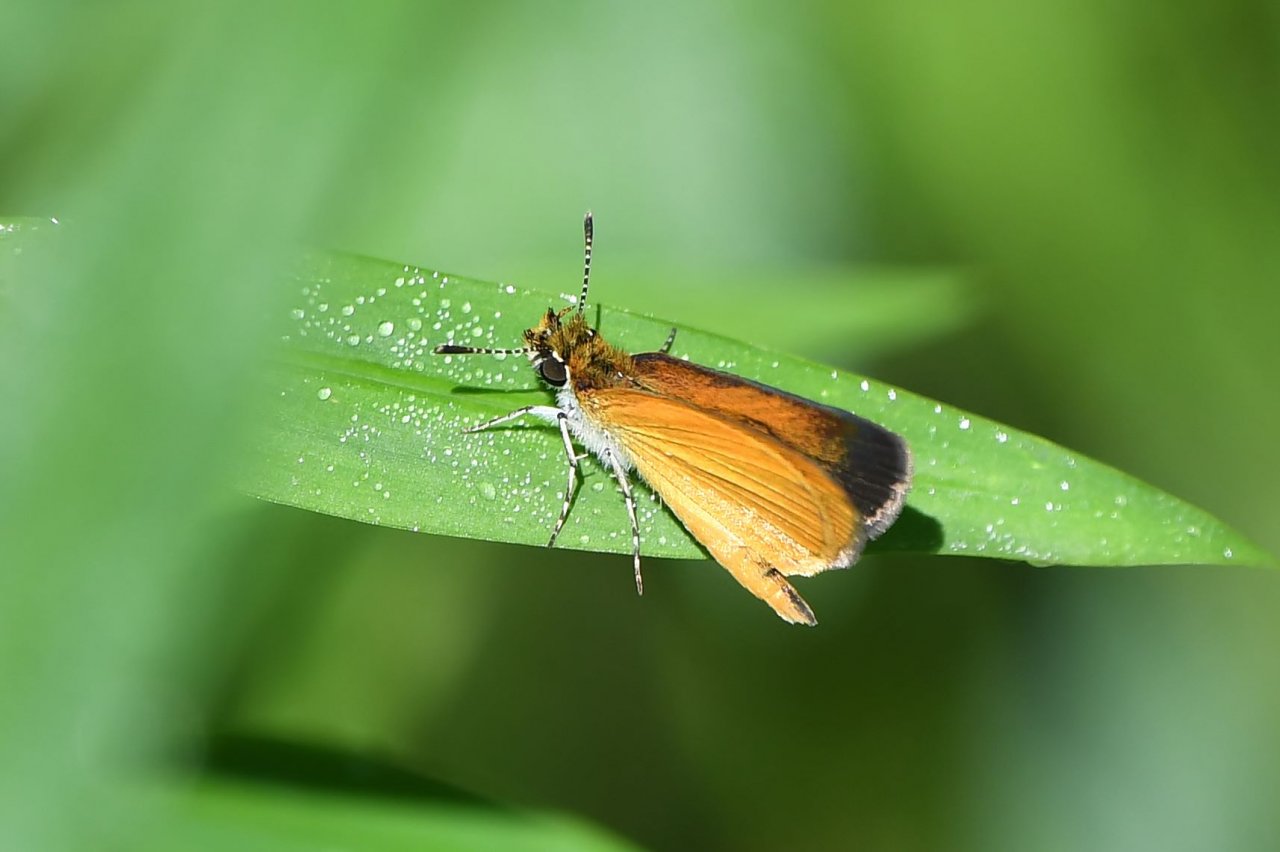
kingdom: Animalia
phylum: Arthropoda
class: Insecta
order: Lepidoptera
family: Hesperiidae
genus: Ancyloxypha
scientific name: Ancyloxypha numitor
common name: Least Skipper
